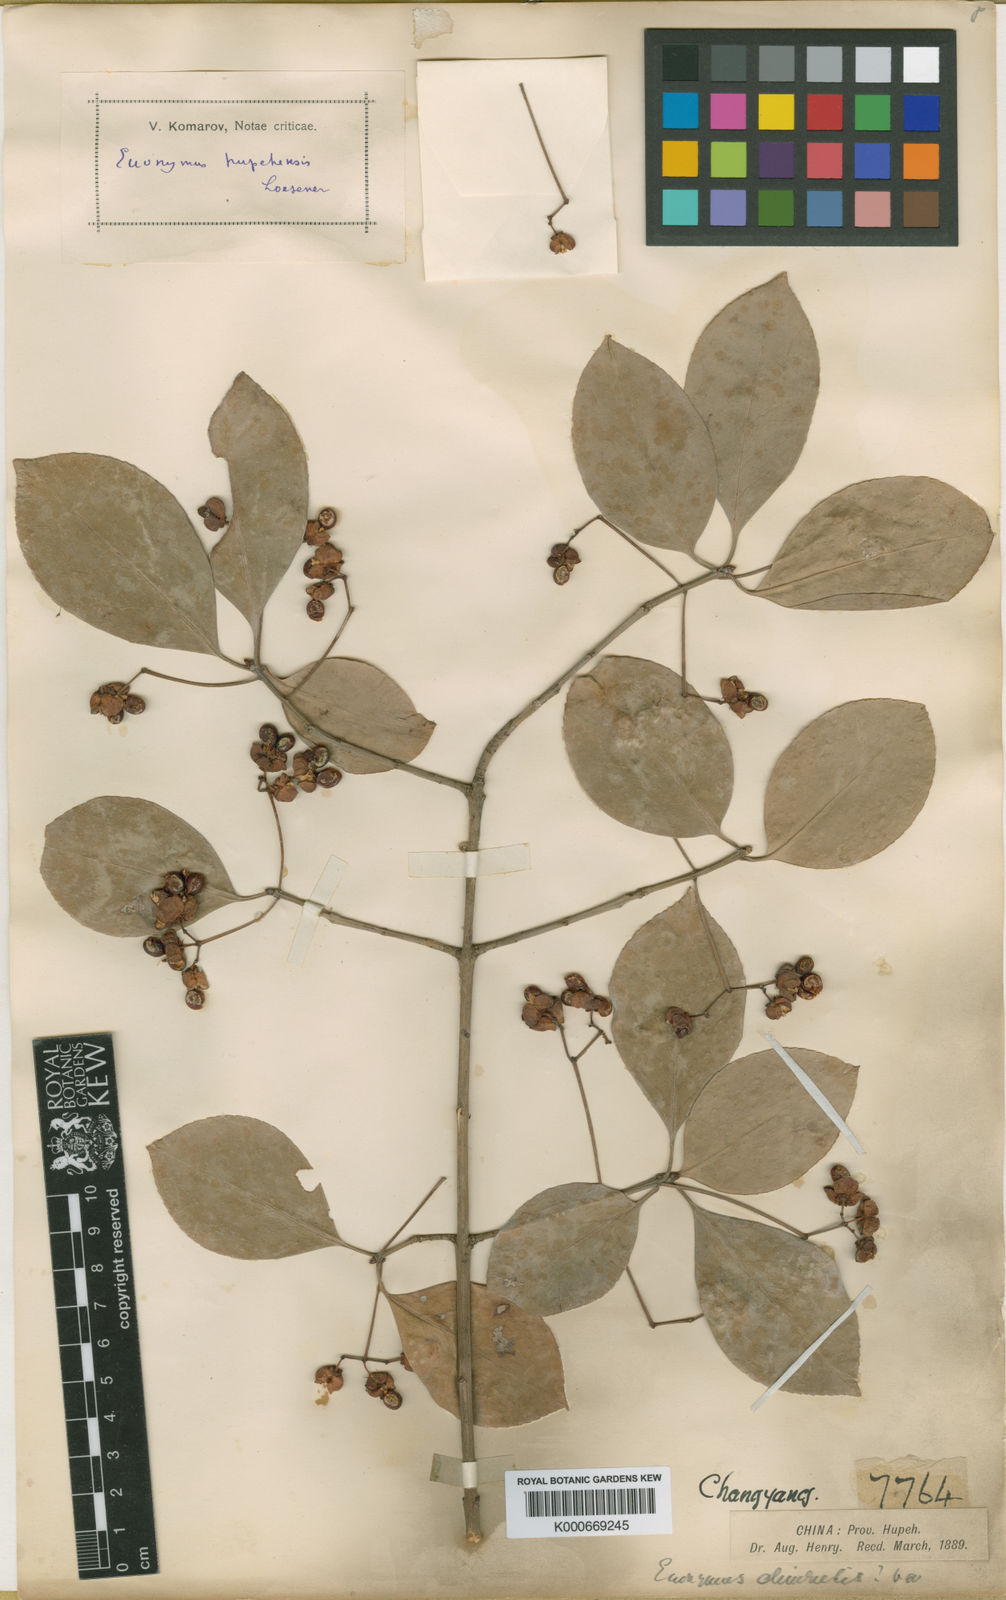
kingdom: Plantae
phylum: Tracheophyta
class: Magnoliopsida
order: Celastrales
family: Celastraceae
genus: Euonymus
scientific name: Euonymus fortunei
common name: Climbing euonymus
